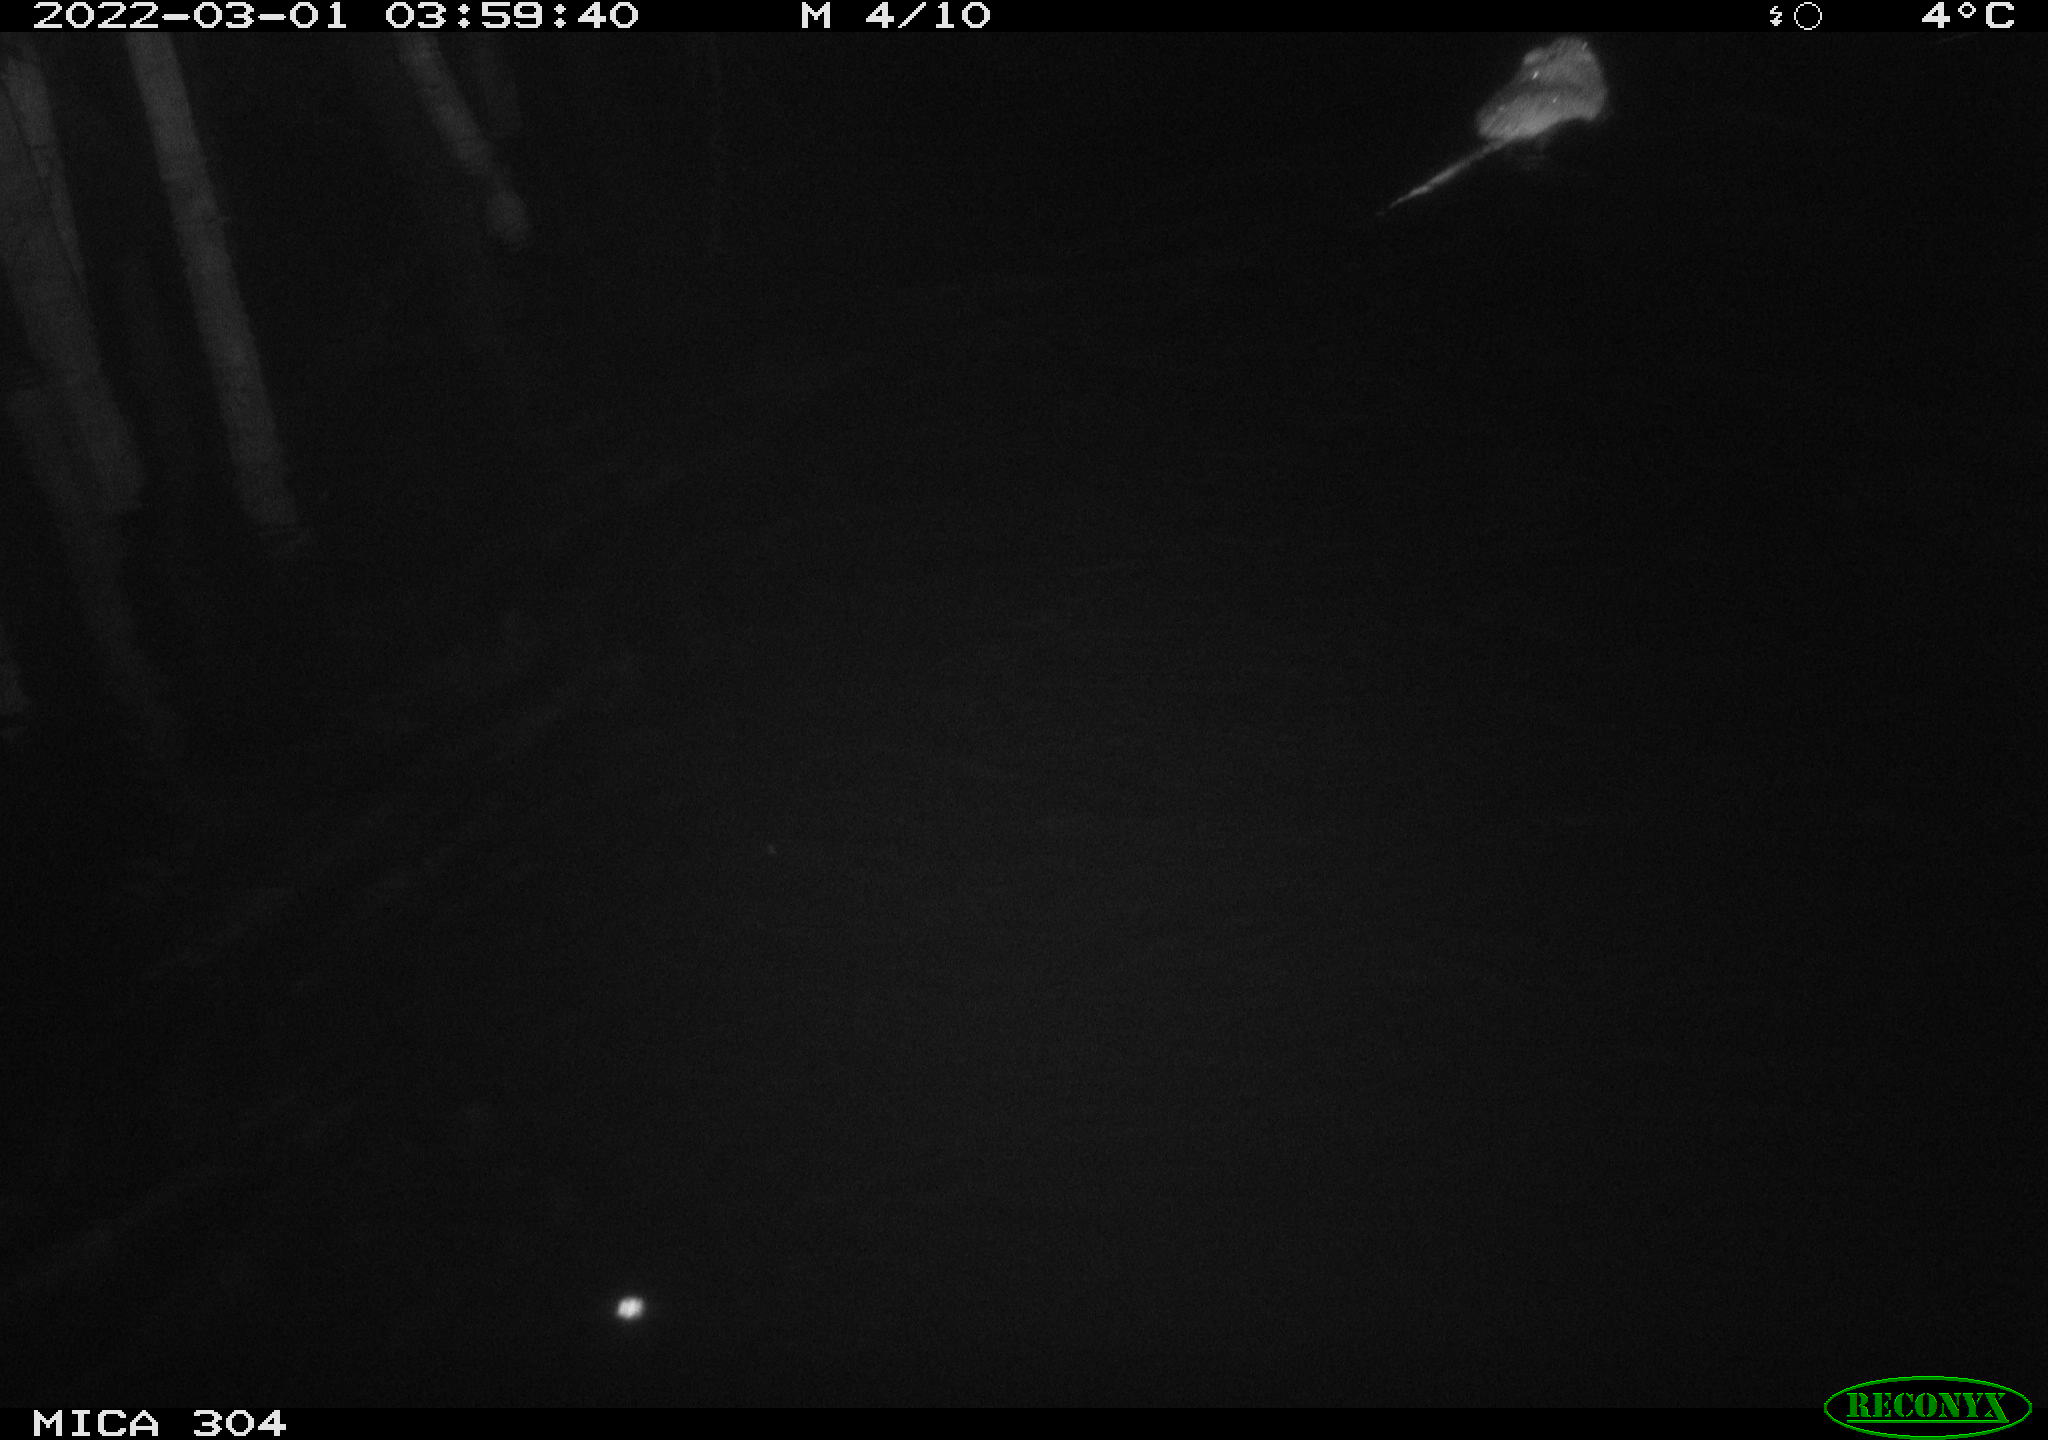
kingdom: Animalia
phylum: Chordata
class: Mammalia
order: Rodentia
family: Cricetidae
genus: Ondatra
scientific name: Ondatra zibethicus
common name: Muskrat
